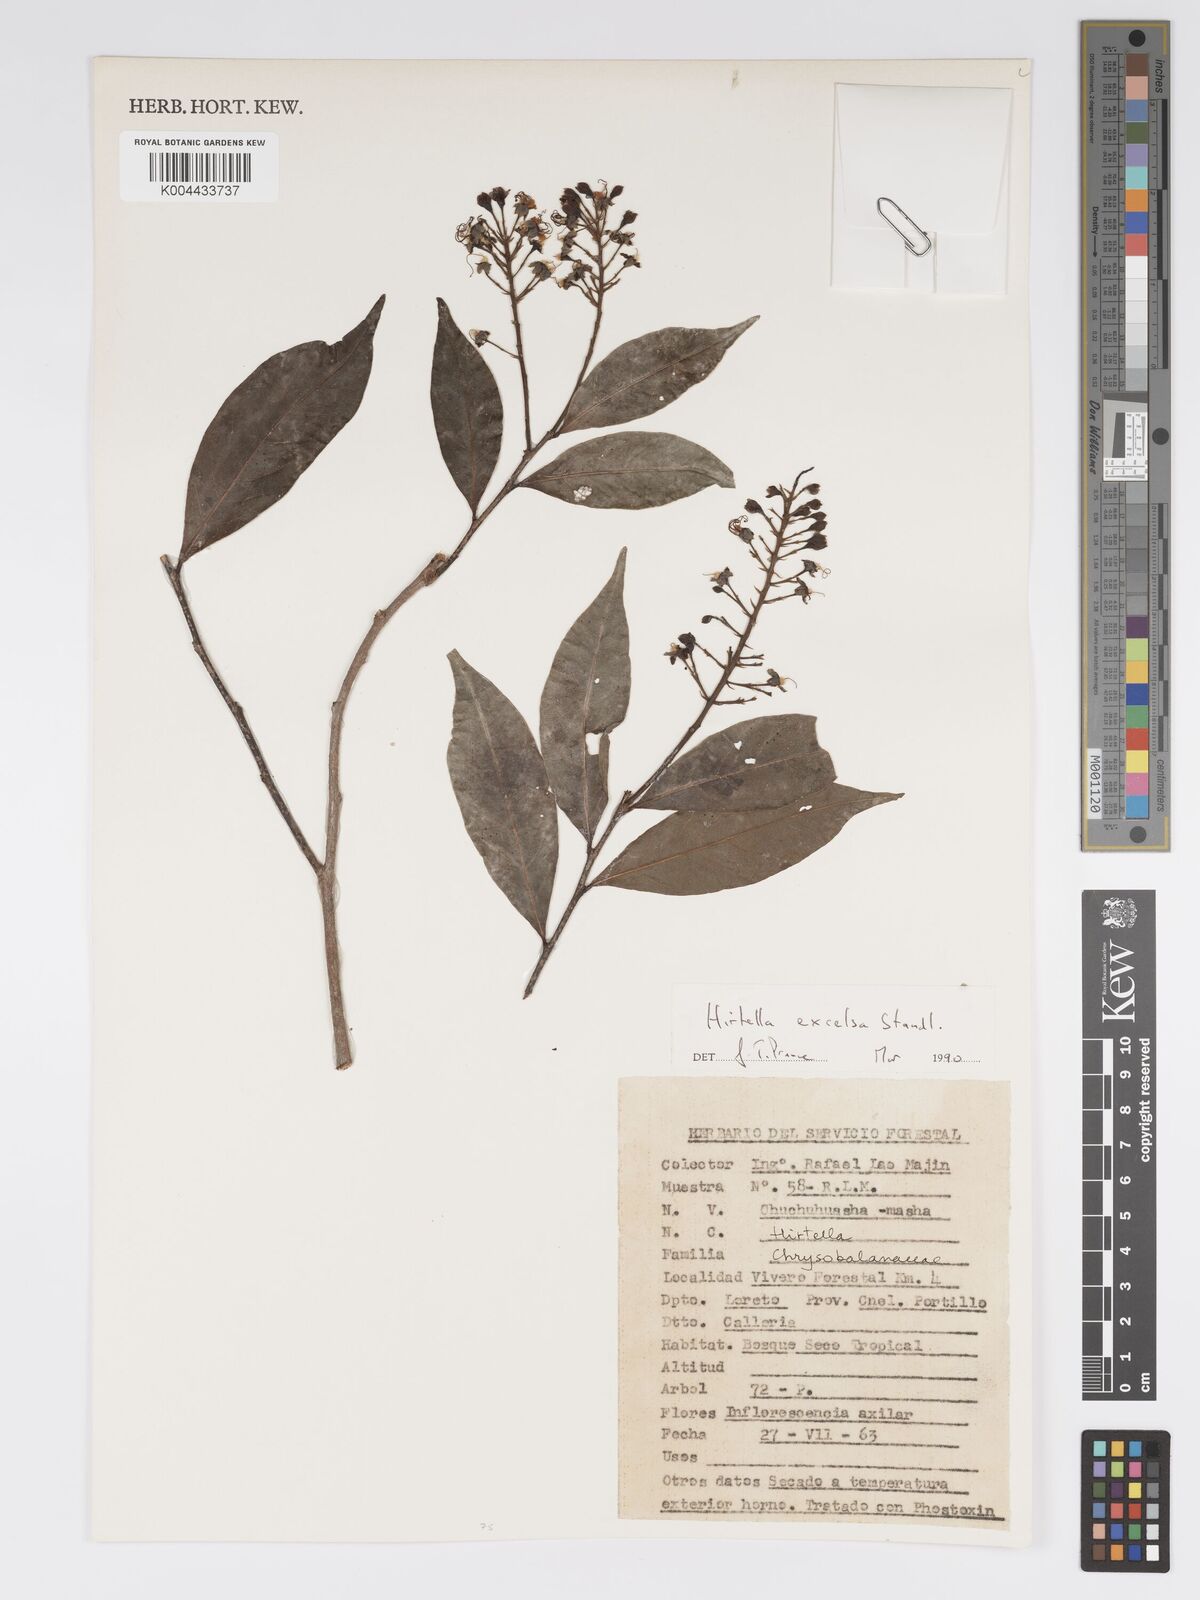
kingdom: Plantae
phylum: Tracheophyta
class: Magnoliopsida
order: Malpighiales
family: Chrysobalanaceae
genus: Hirtella
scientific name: Hirtella excelsa
